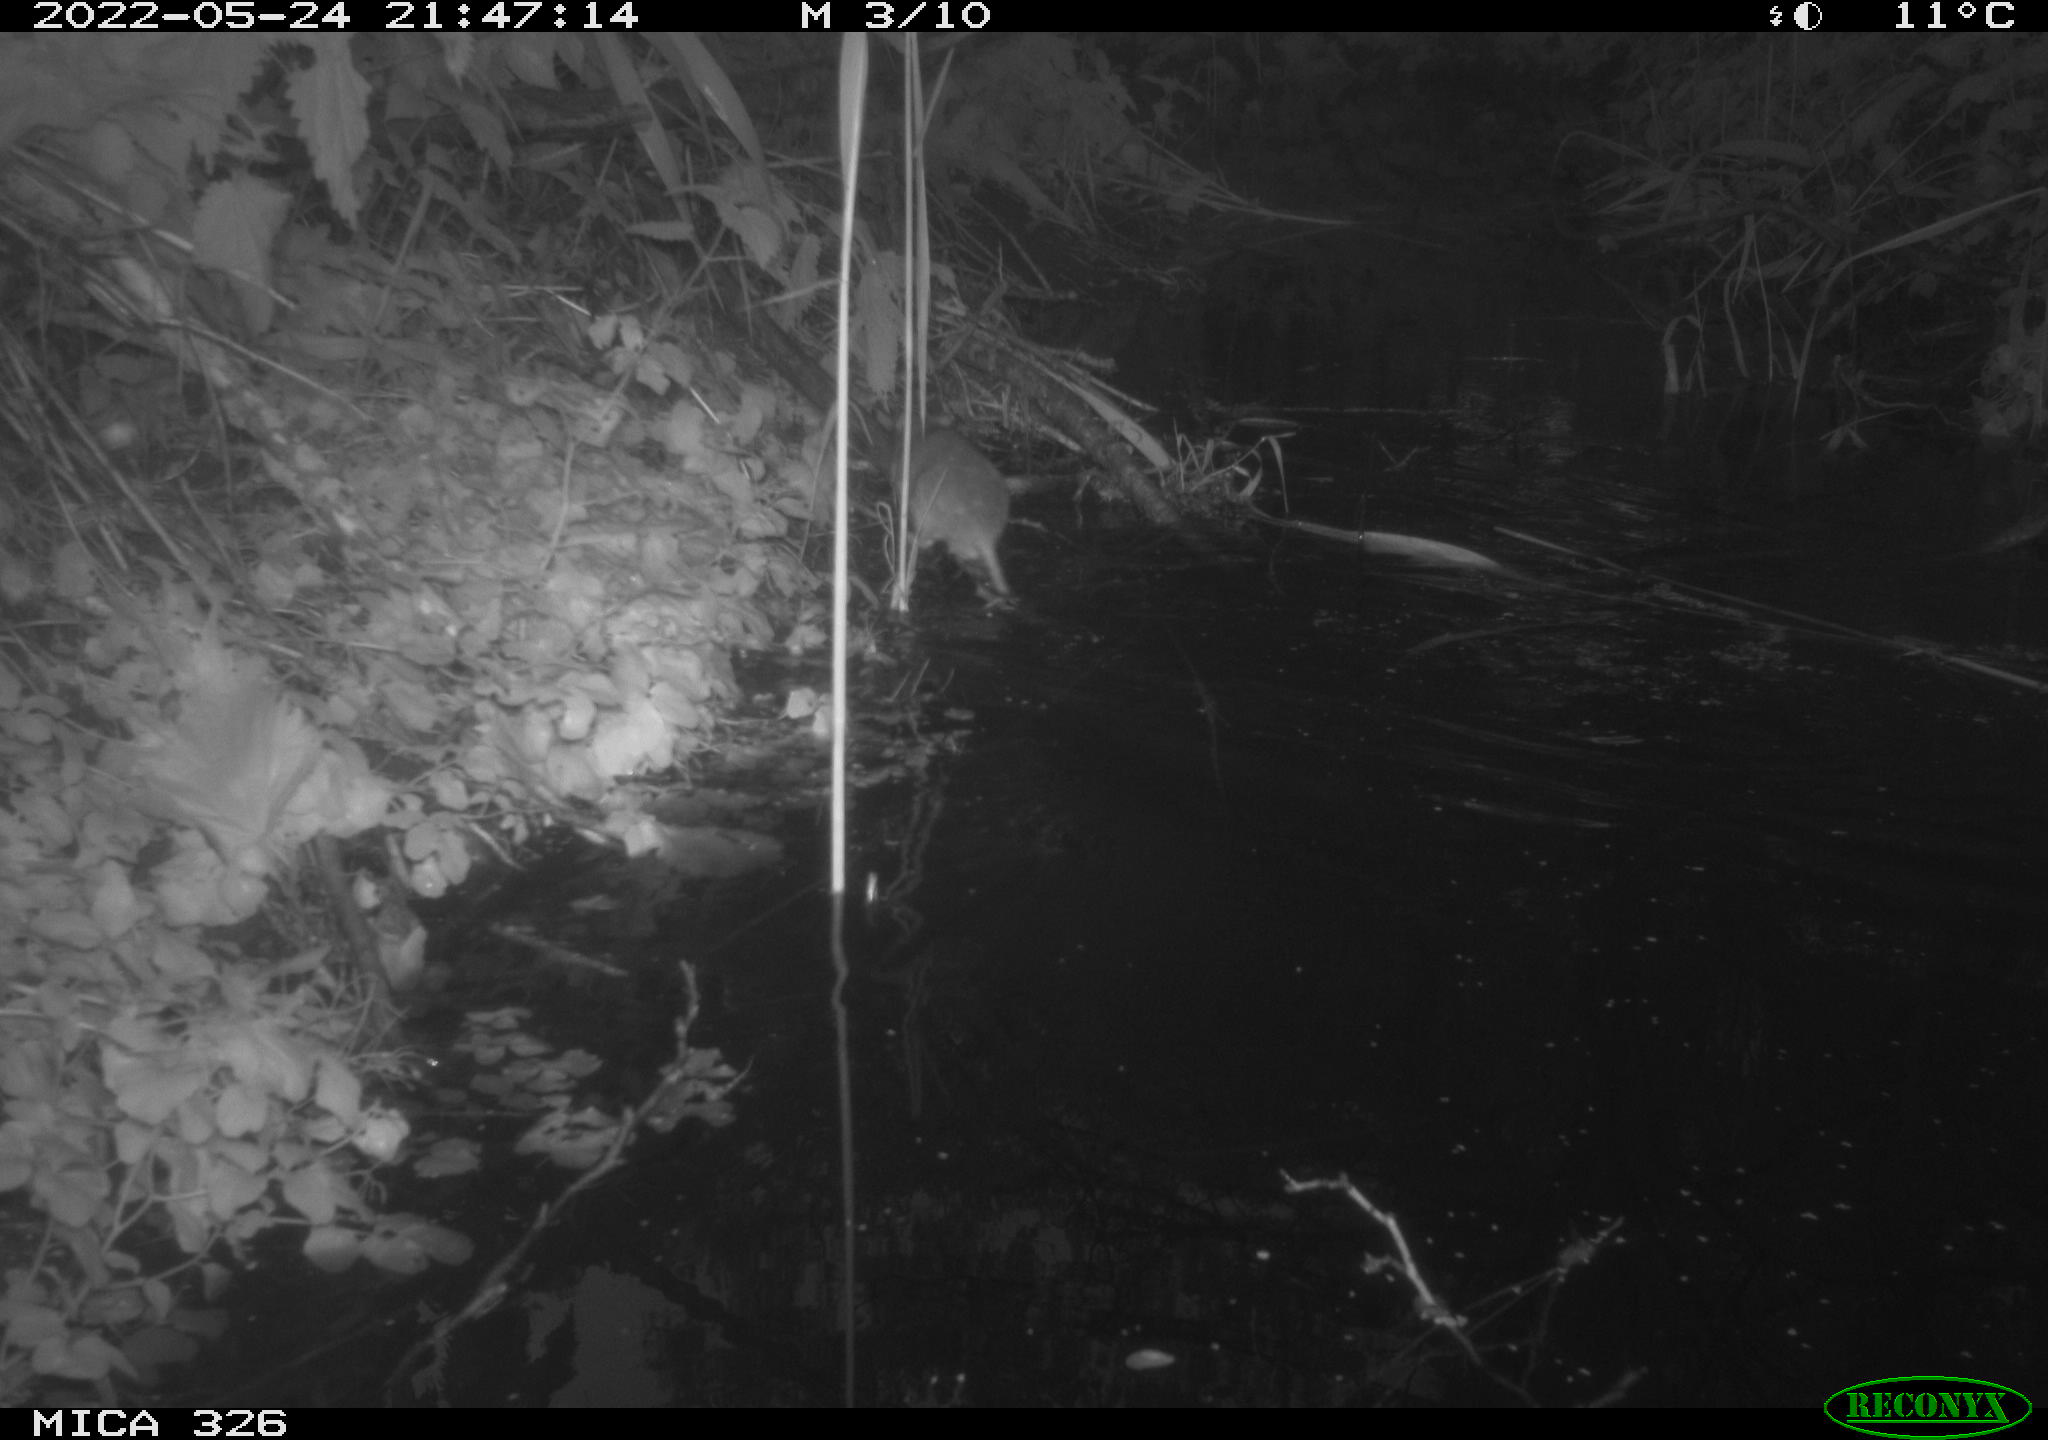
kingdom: Animalia
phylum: Chordata
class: Mammalia
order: Rodentia
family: Muridae
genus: Rattus
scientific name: Rattus norvegicus
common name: Brown rat
